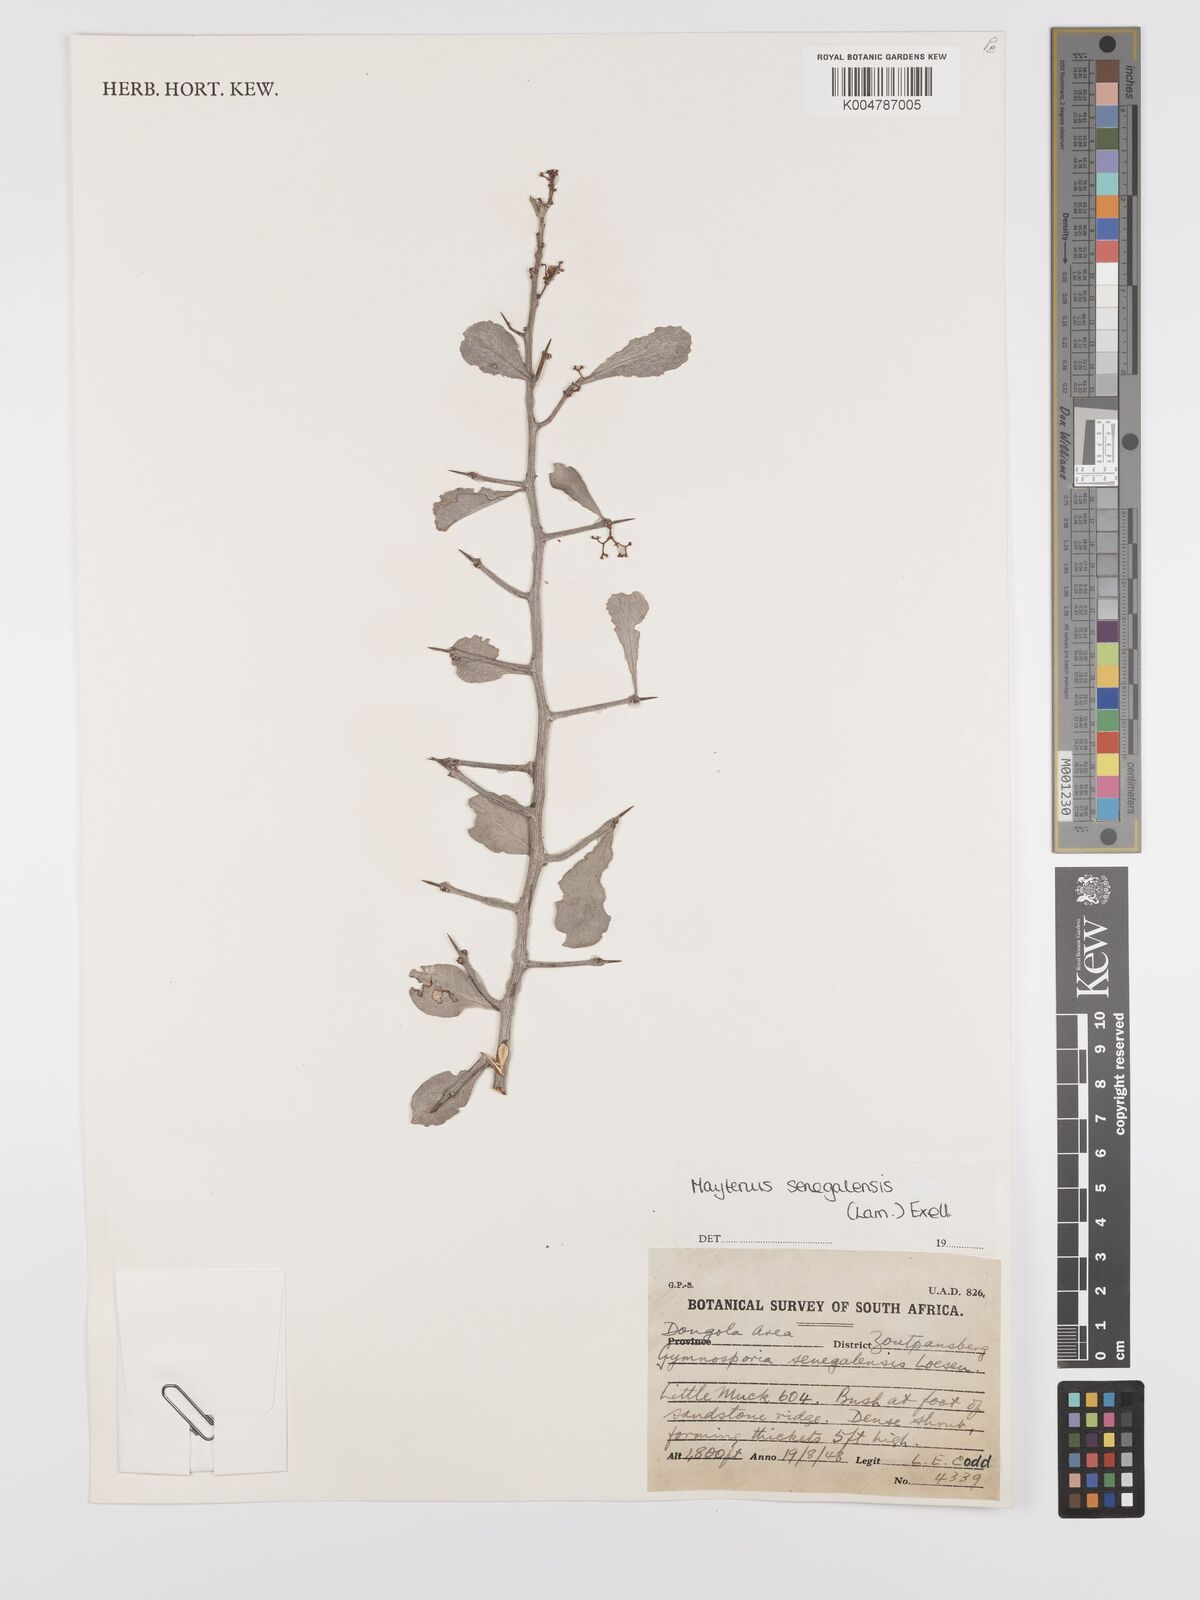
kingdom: Plantae
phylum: Tracheophyta
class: Magnoliopsida
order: Celastrales
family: Celastraceae
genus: Gymnosporia
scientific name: Gymnosporia senegalensis
